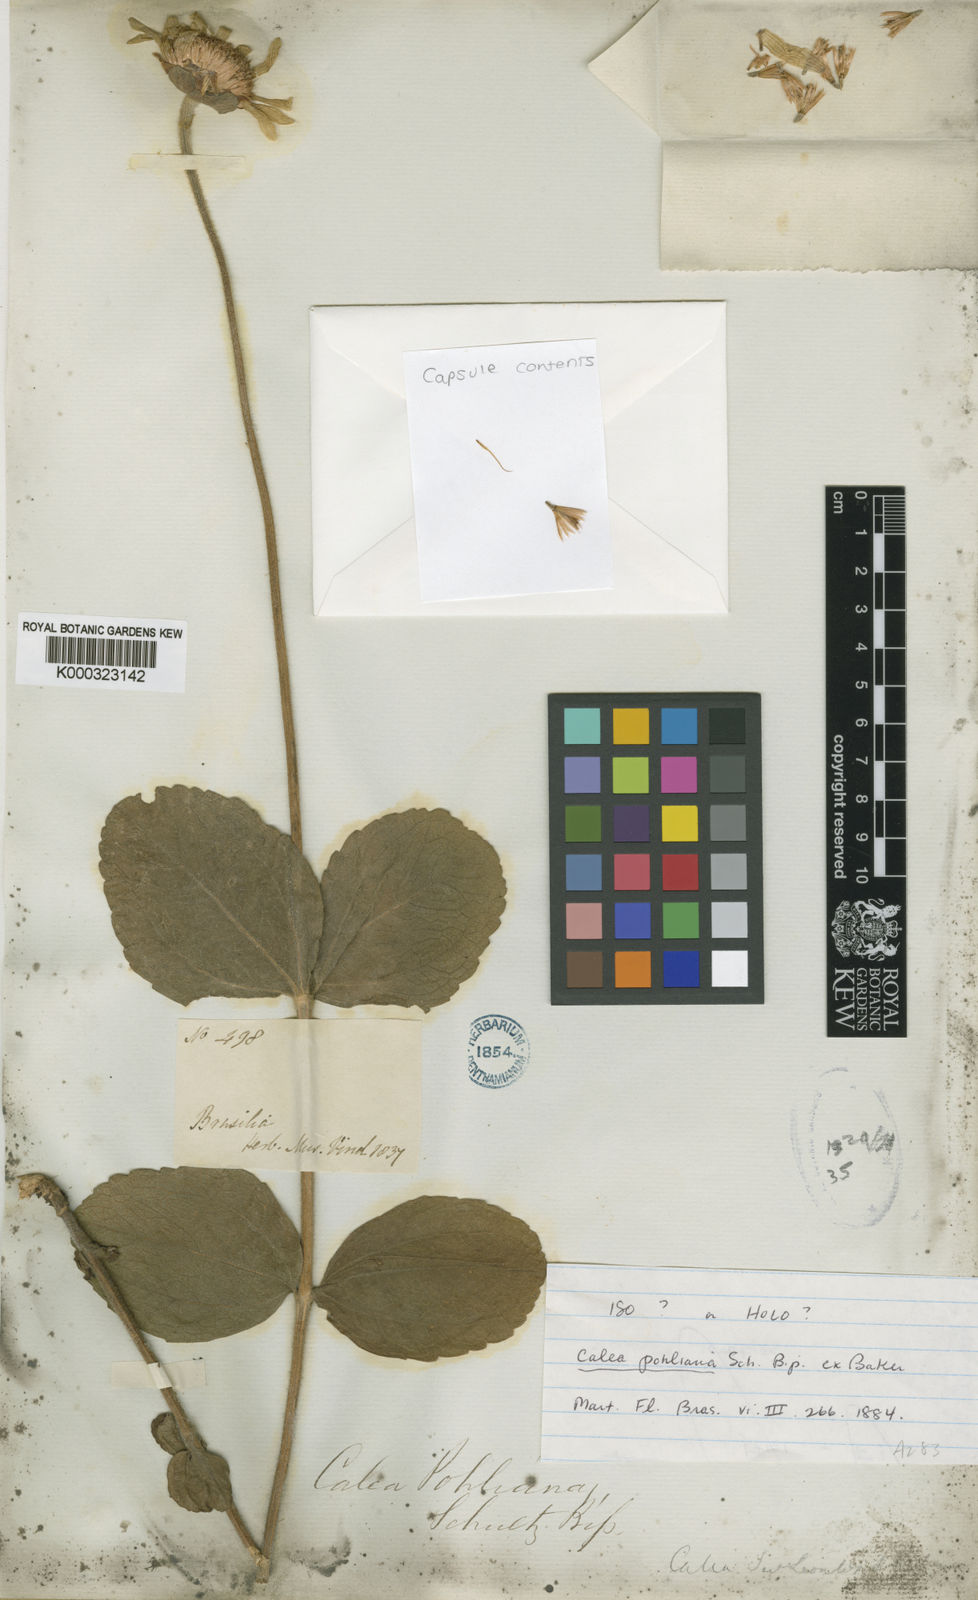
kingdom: Plantae
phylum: Tracheophyta
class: Magnoliopsida
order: Asterales
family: Asteraceae
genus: Calea
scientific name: Calea pohliana
